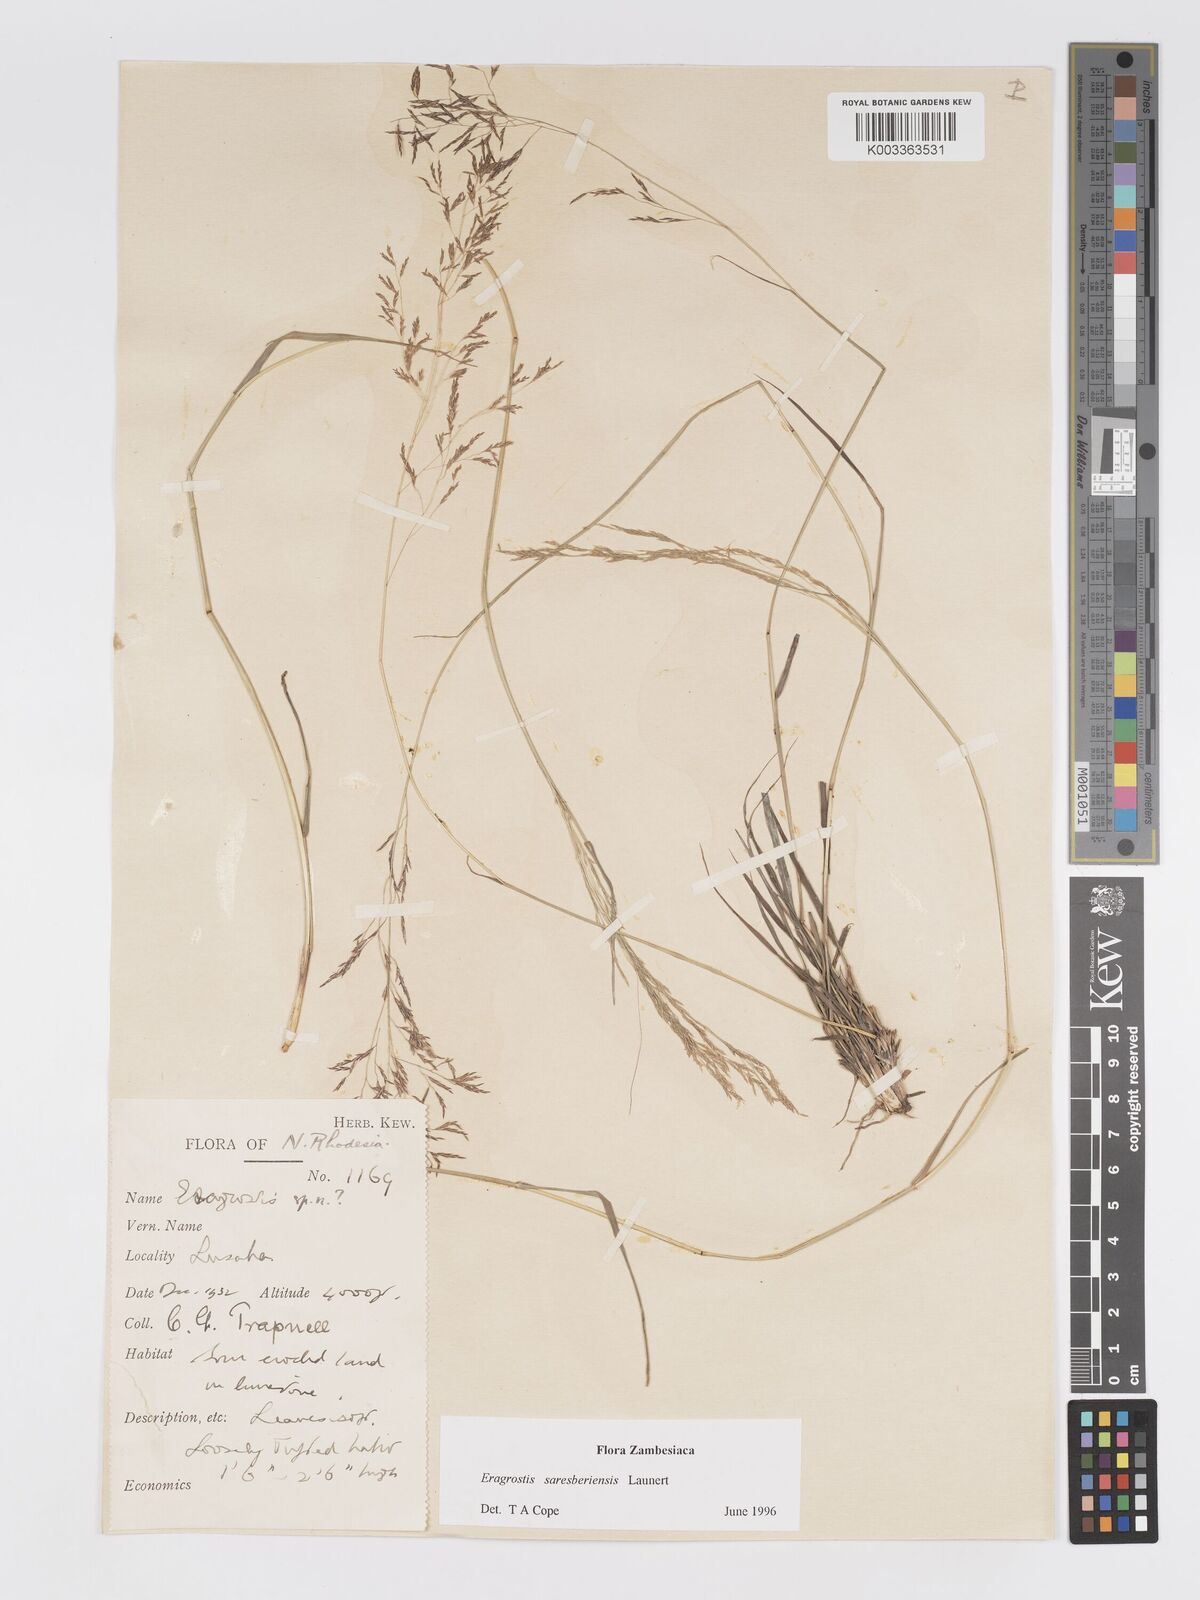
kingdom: Plantae
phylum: Tracheophyta
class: Liliopsida
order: Poales
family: Poaceae
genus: Eragrostis
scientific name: Eragrostis saresberiensis
